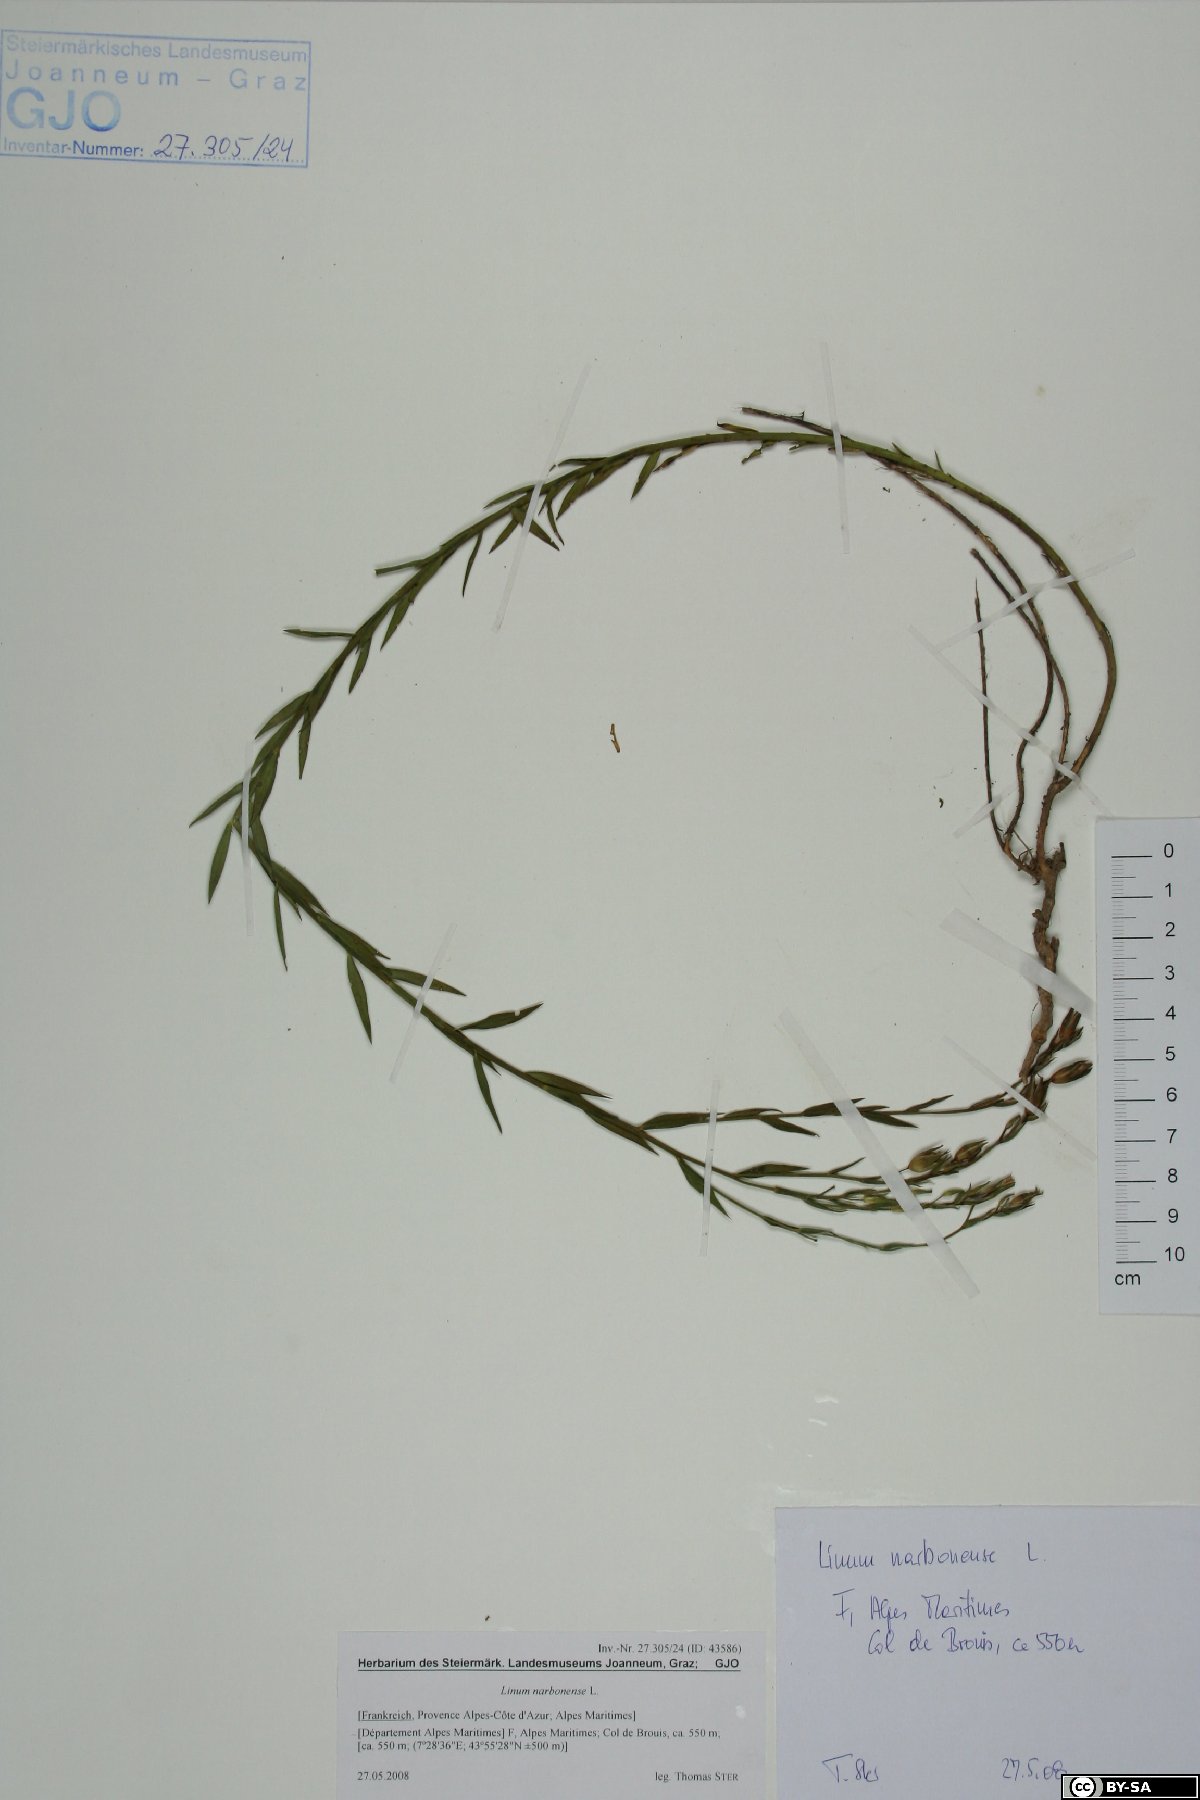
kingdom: Plantae
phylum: Tracheophyta
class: Magnoliopsida
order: Malpighiales
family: Linaceae
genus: Linum
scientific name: Linum narbonense
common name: Flax
